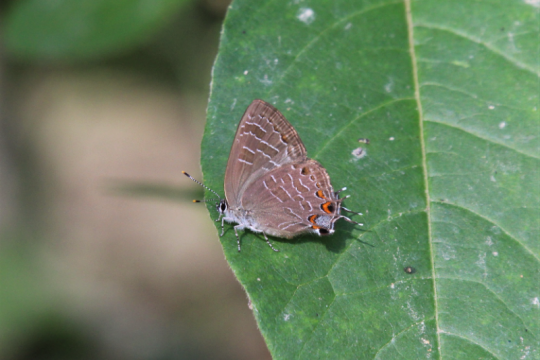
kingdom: Animalia
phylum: Arthropoda
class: Insecta
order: Lepidoptera
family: Lycaenidae
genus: Satyrium
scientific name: Satyrium liparops
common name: Striped Hairstreak
